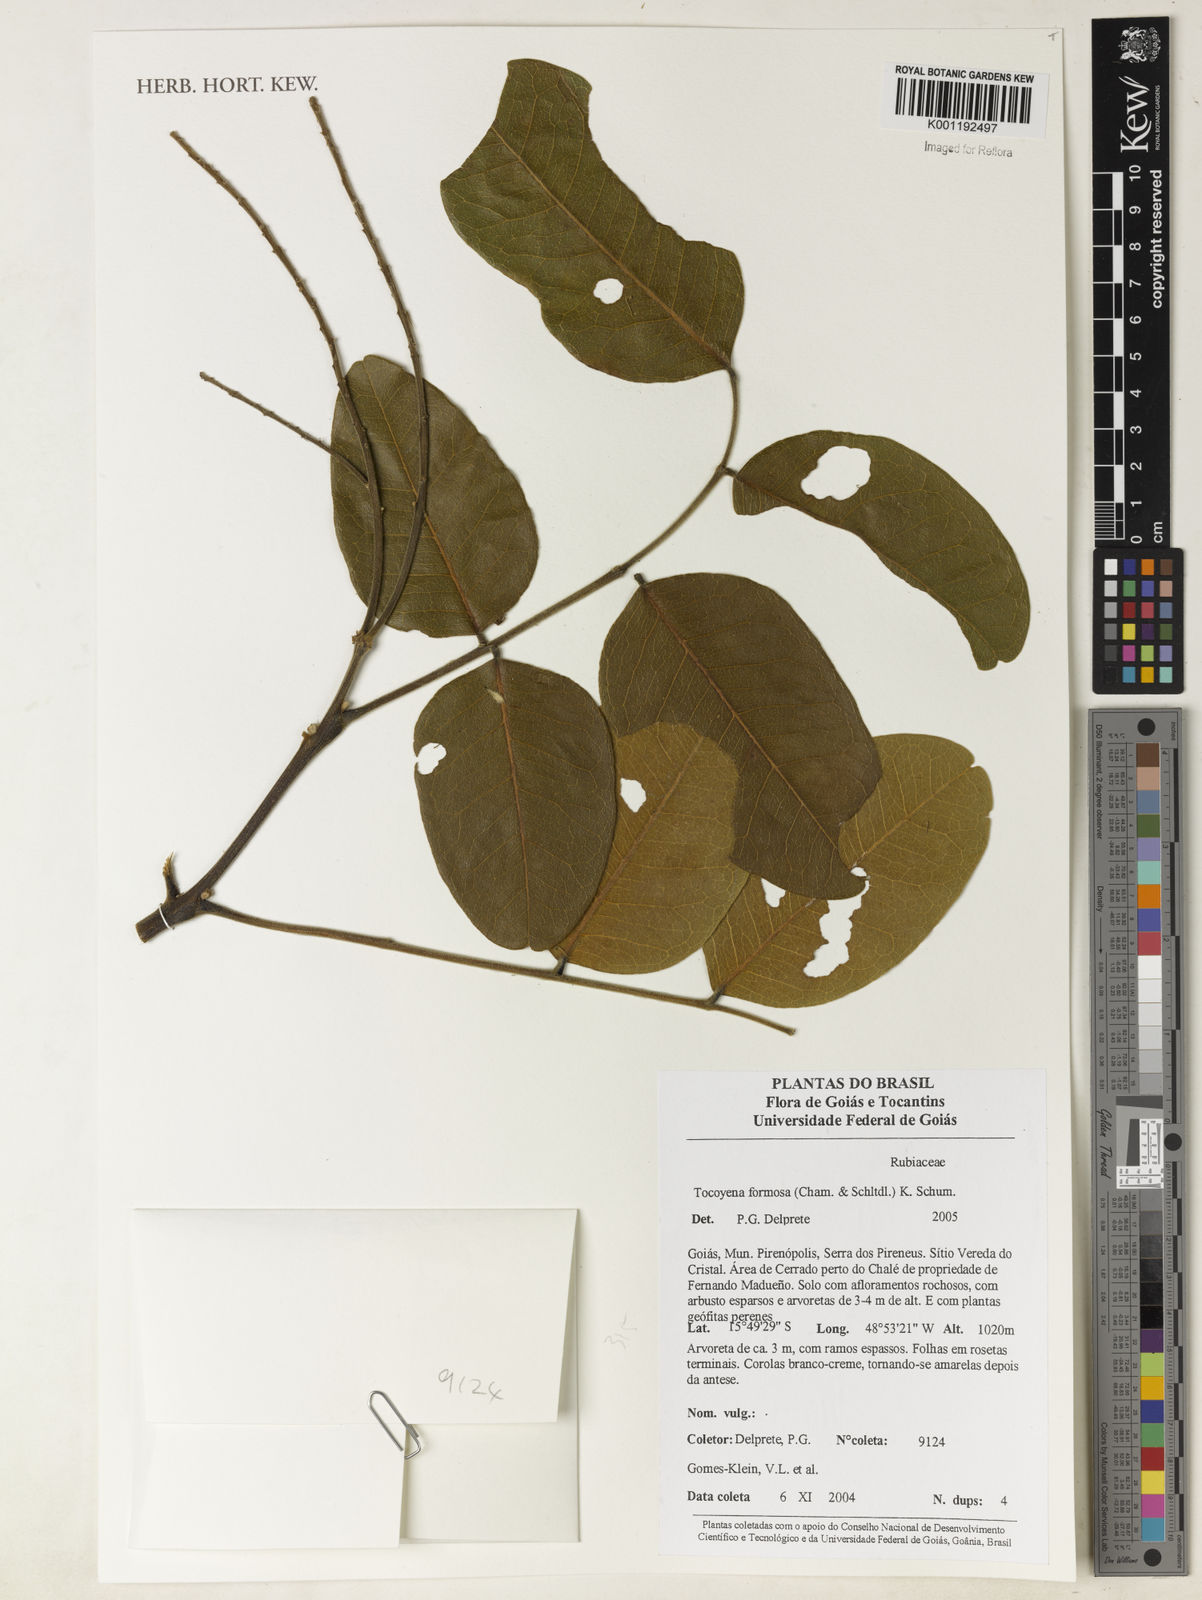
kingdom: Plantae
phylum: Tracheophyta
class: Magnoliopsida
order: Fabales
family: Fabaceae
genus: Leptolobium
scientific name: Leptolobium dasycarpum
